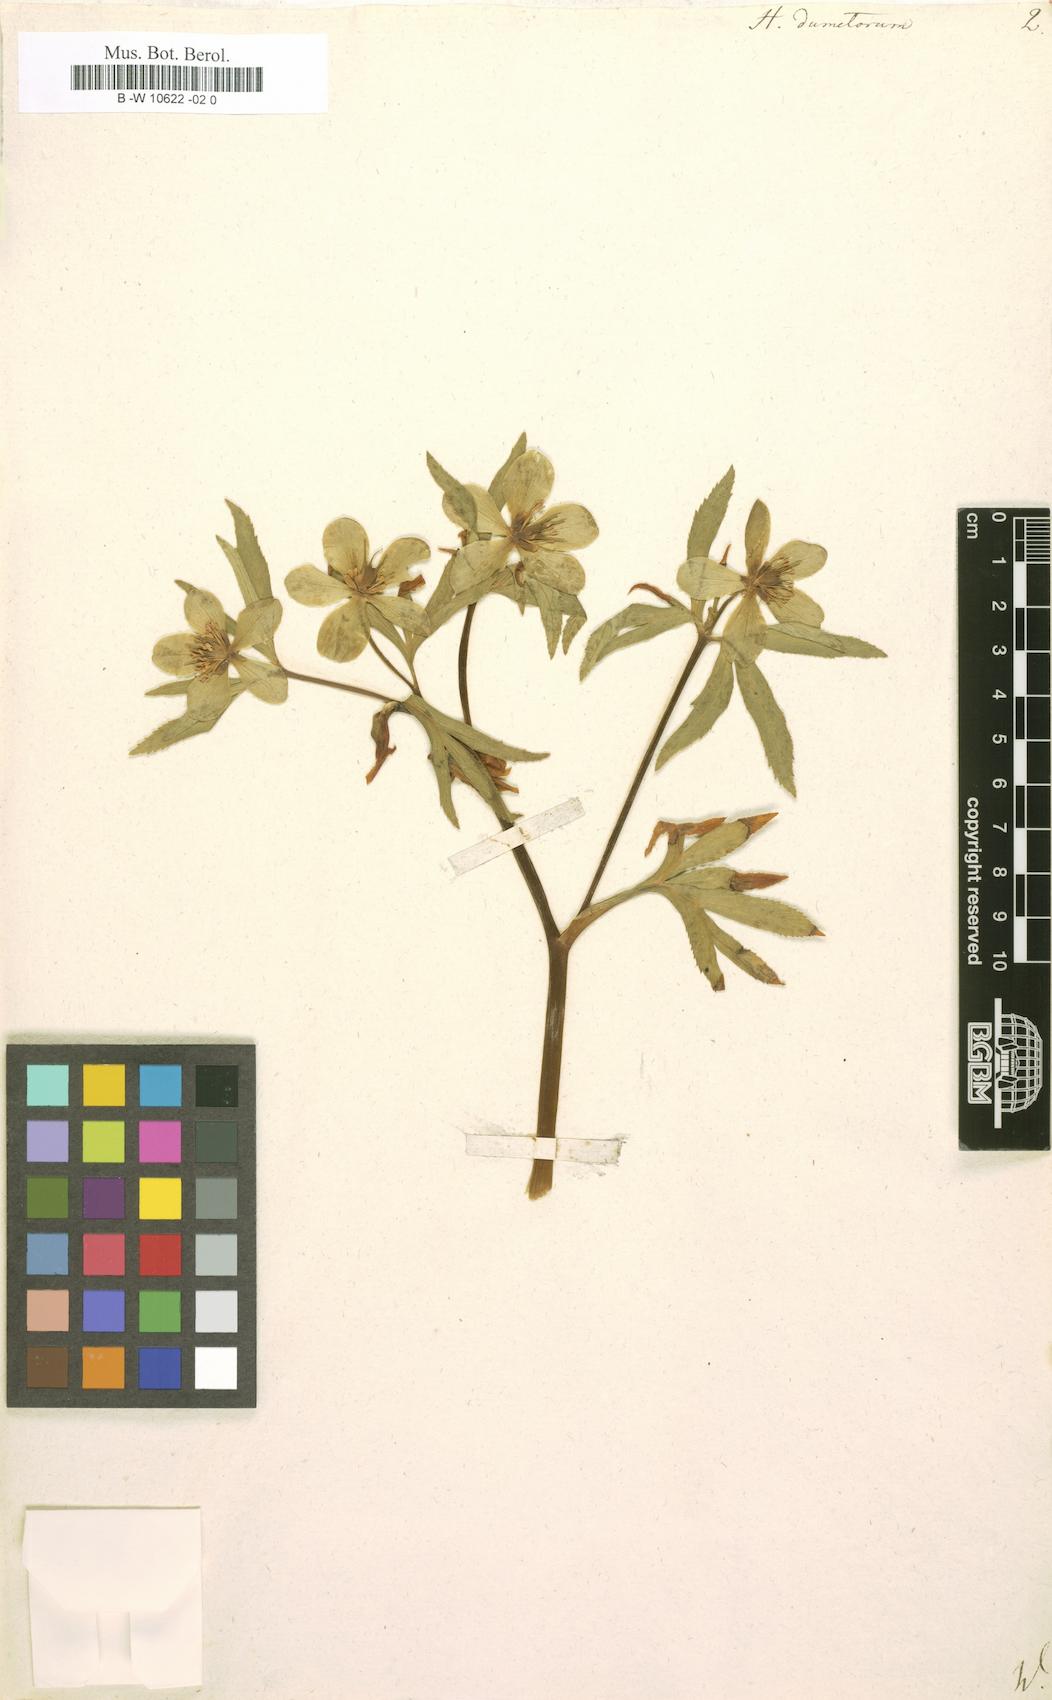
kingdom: Plantae
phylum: Tracheophyta
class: Magnoliopsida
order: Ranunculales
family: Ranunculaceae
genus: Helleborus
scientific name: Helleborus dumetorum
